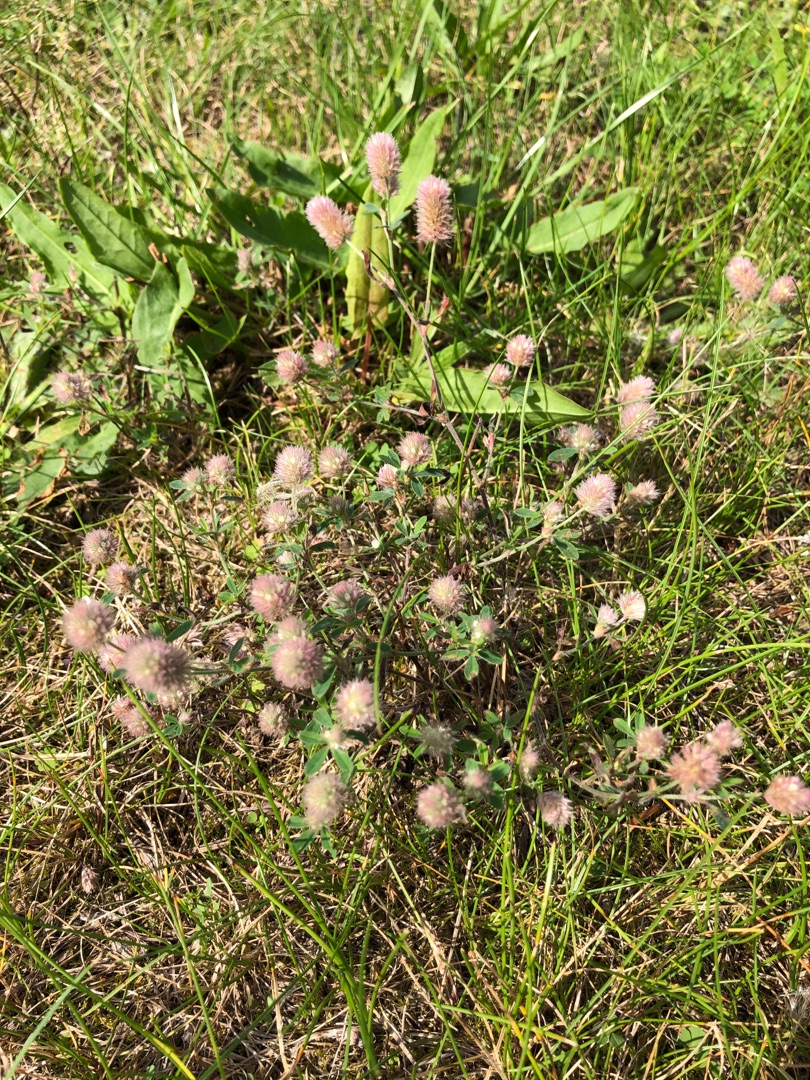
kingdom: Plantae
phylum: Tracheophyta
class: Magnoliopsida
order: Fabales
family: Fabaceae
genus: Trifolium
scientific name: Trifolium arvense
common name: Hare-kløver
